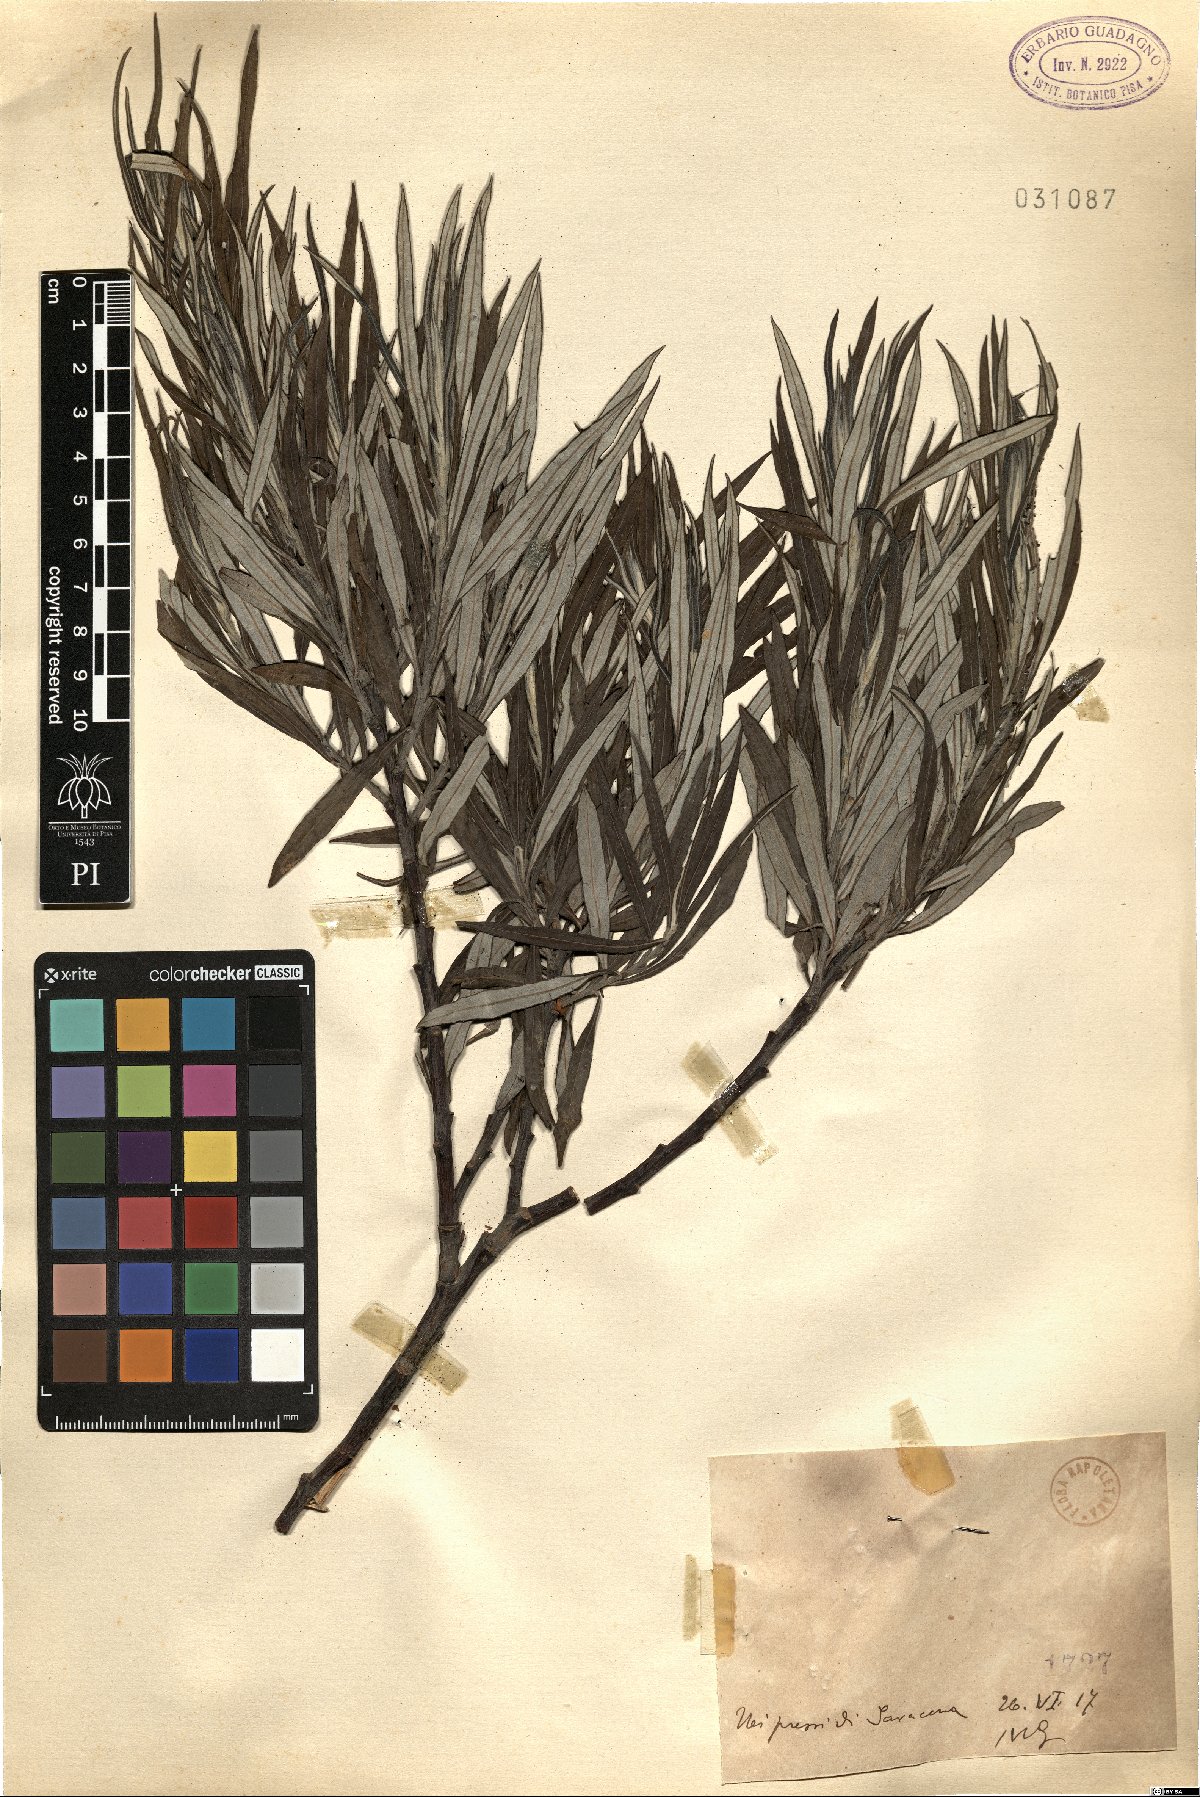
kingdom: Plantae
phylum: Tracheophyta
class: Magnoliopsida
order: Malpighiales
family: Salicaceae
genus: Salix
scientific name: Salix
